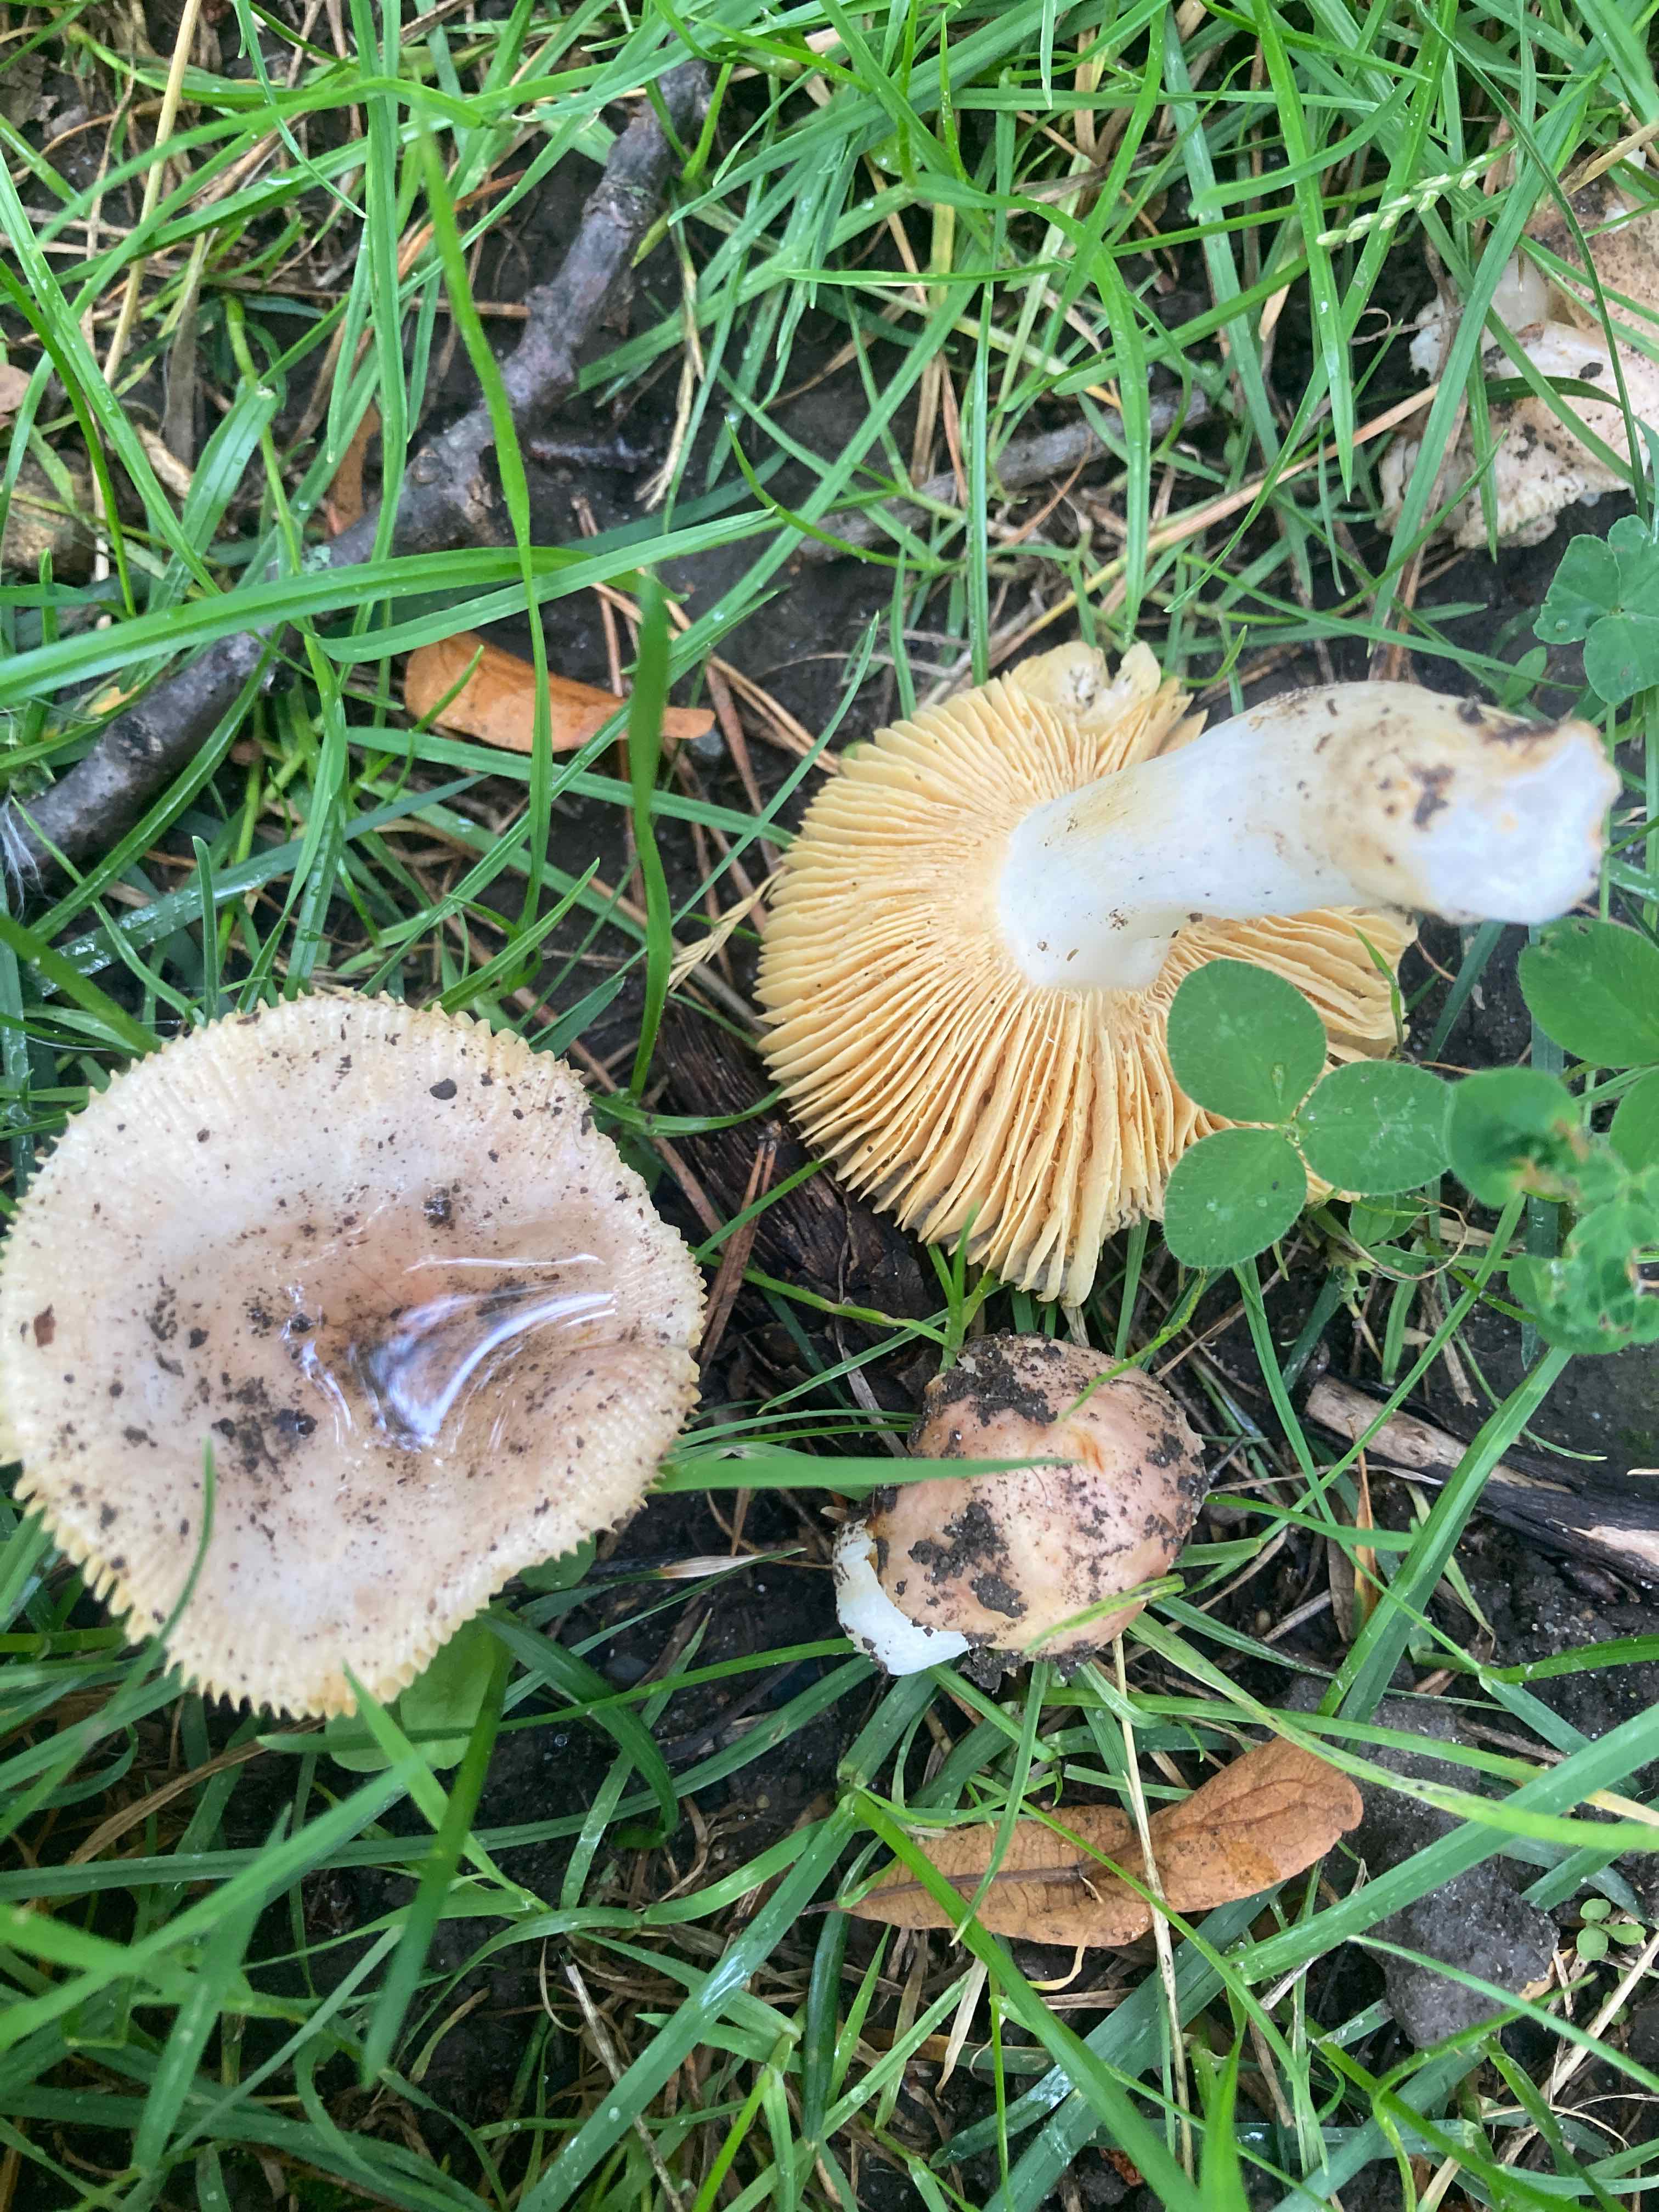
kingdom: Fungi
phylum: Basidiomycota
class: Agaricomycetes
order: Russulales
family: Russulaceae
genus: Russula
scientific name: Russula odorata
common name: duft-skørhat
